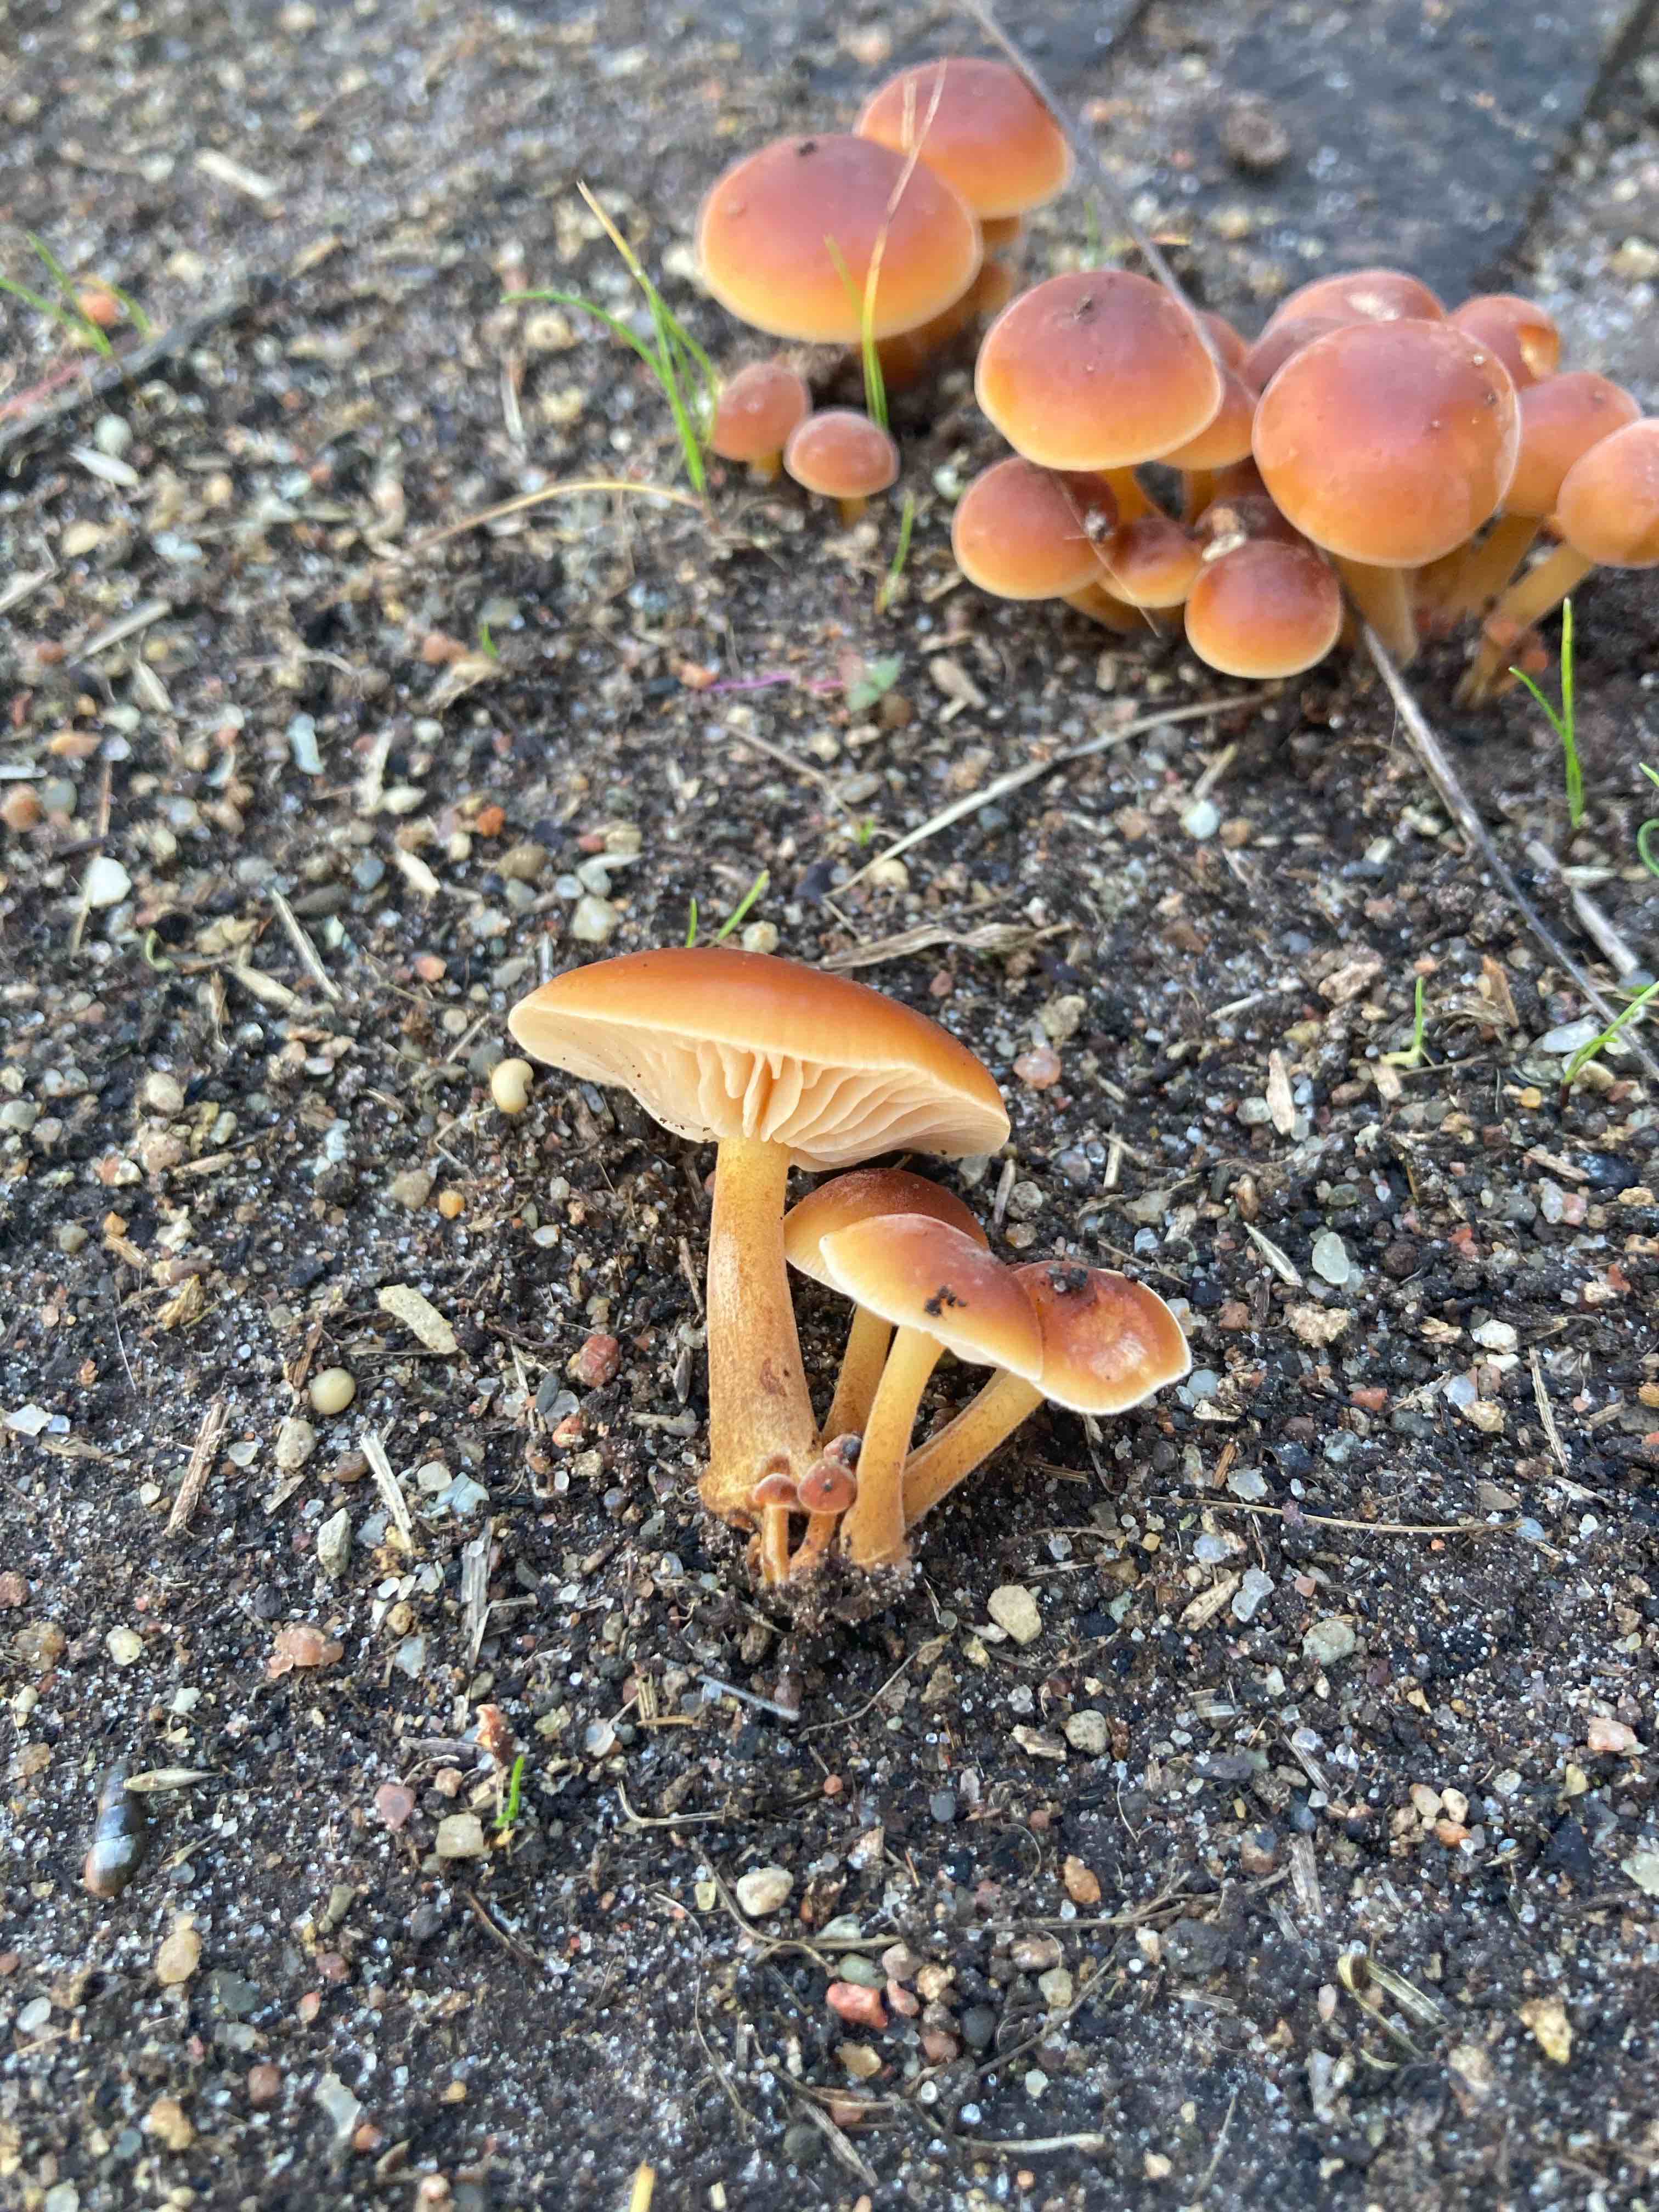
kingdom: Fungi
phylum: Basidiomycota
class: Agaricomycetes
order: Agaricales
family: Physalacriaceae
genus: Flammulina
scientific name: Flammulina velutipes
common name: gul fløjlsfod
